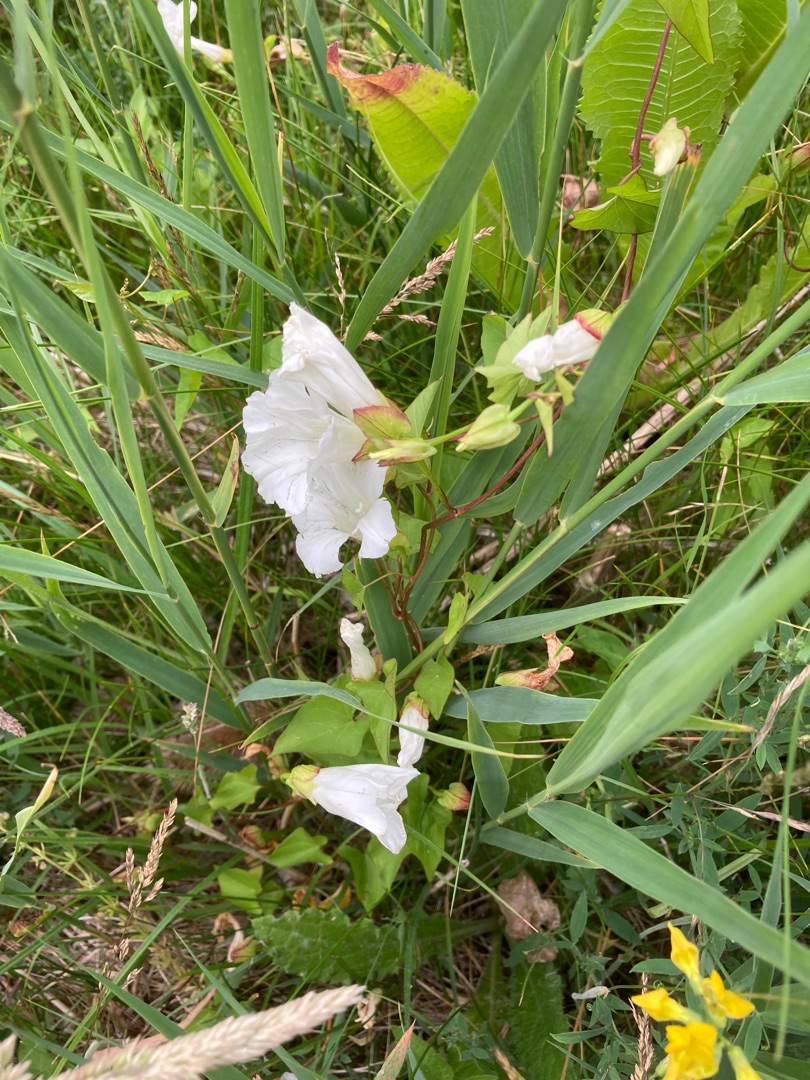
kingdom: Plantae
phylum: Tracheophyta
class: Magnoliopsida
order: Solanales
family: Convolvulaceae
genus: Calystegia
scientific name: Calystegia sepium
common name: Gærde-snerle
